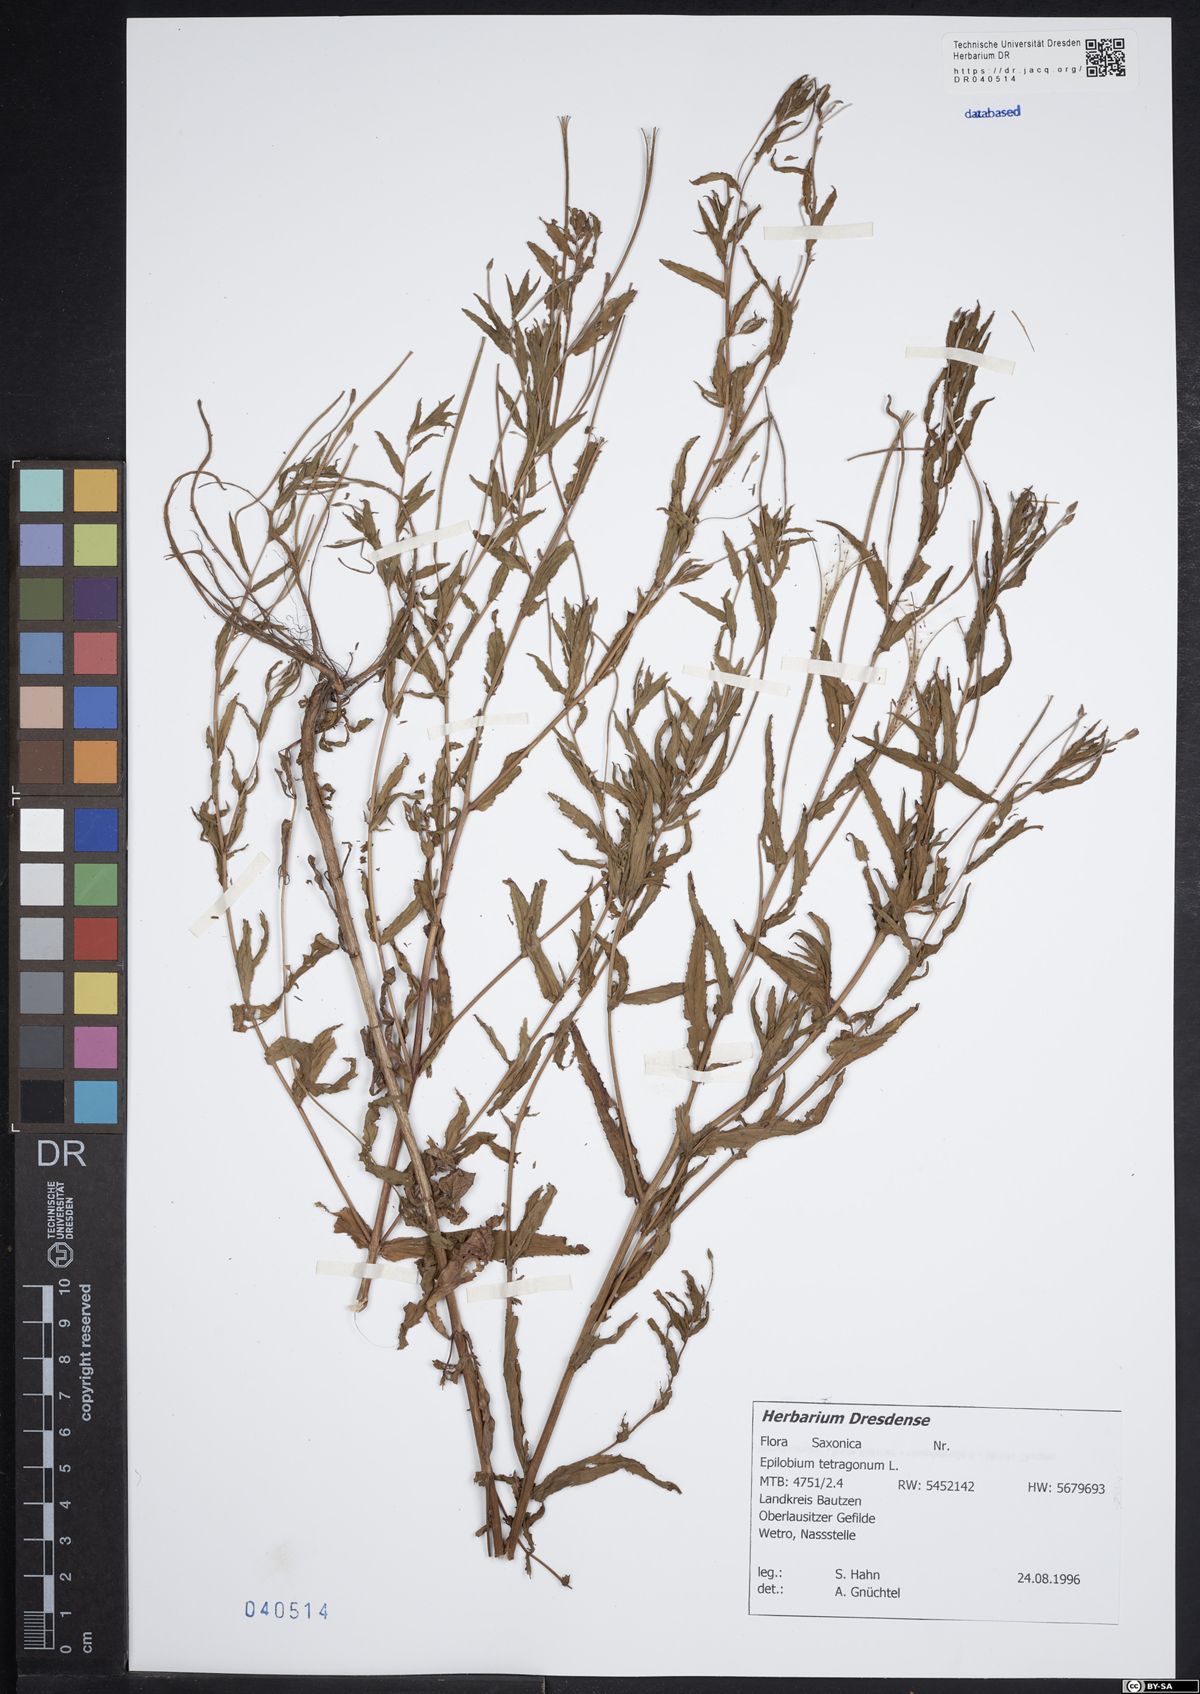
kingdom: Plantae
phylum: Tracheophyta
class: Magnoliopsida
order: Myrtales
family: Onagraceae
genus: Epilobium
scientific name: Epilobium tetragonum
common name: Square-stemmed willowherb
